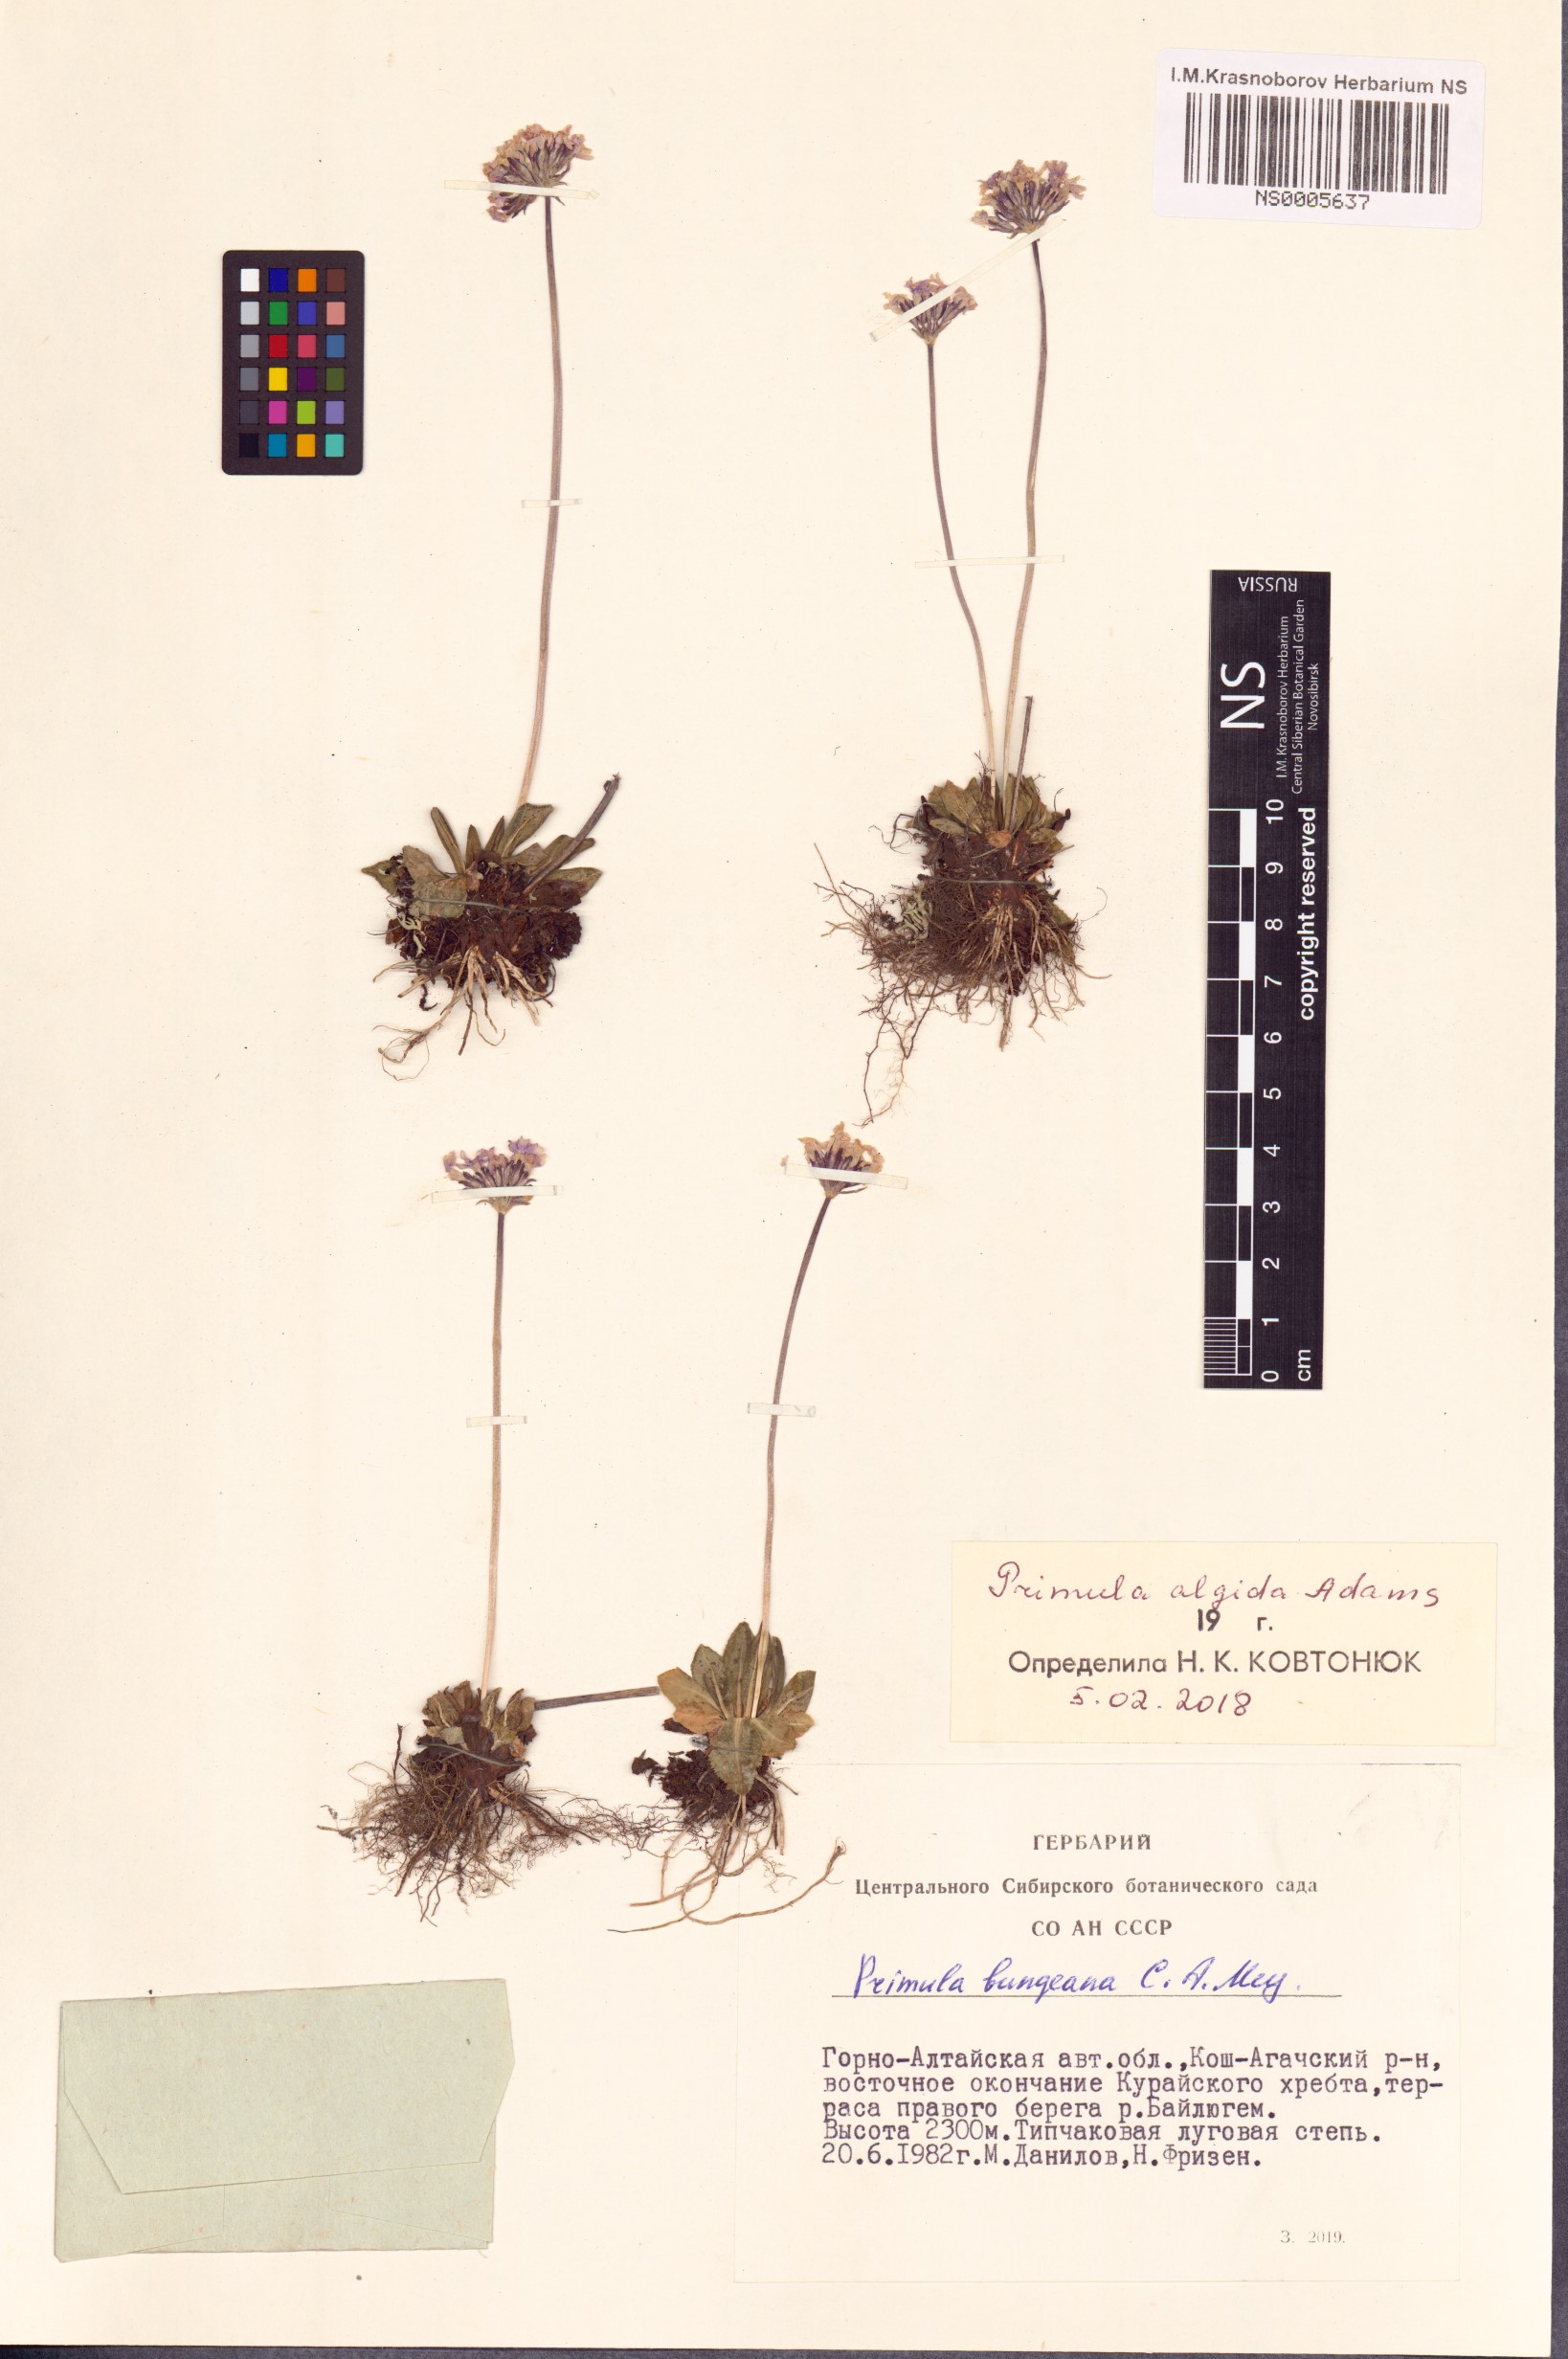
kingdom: Plantae
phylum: Tracheophyta
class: Magnoliopsida
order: Ericales
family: Primulaceae
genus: Primula
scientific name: Primula algida
